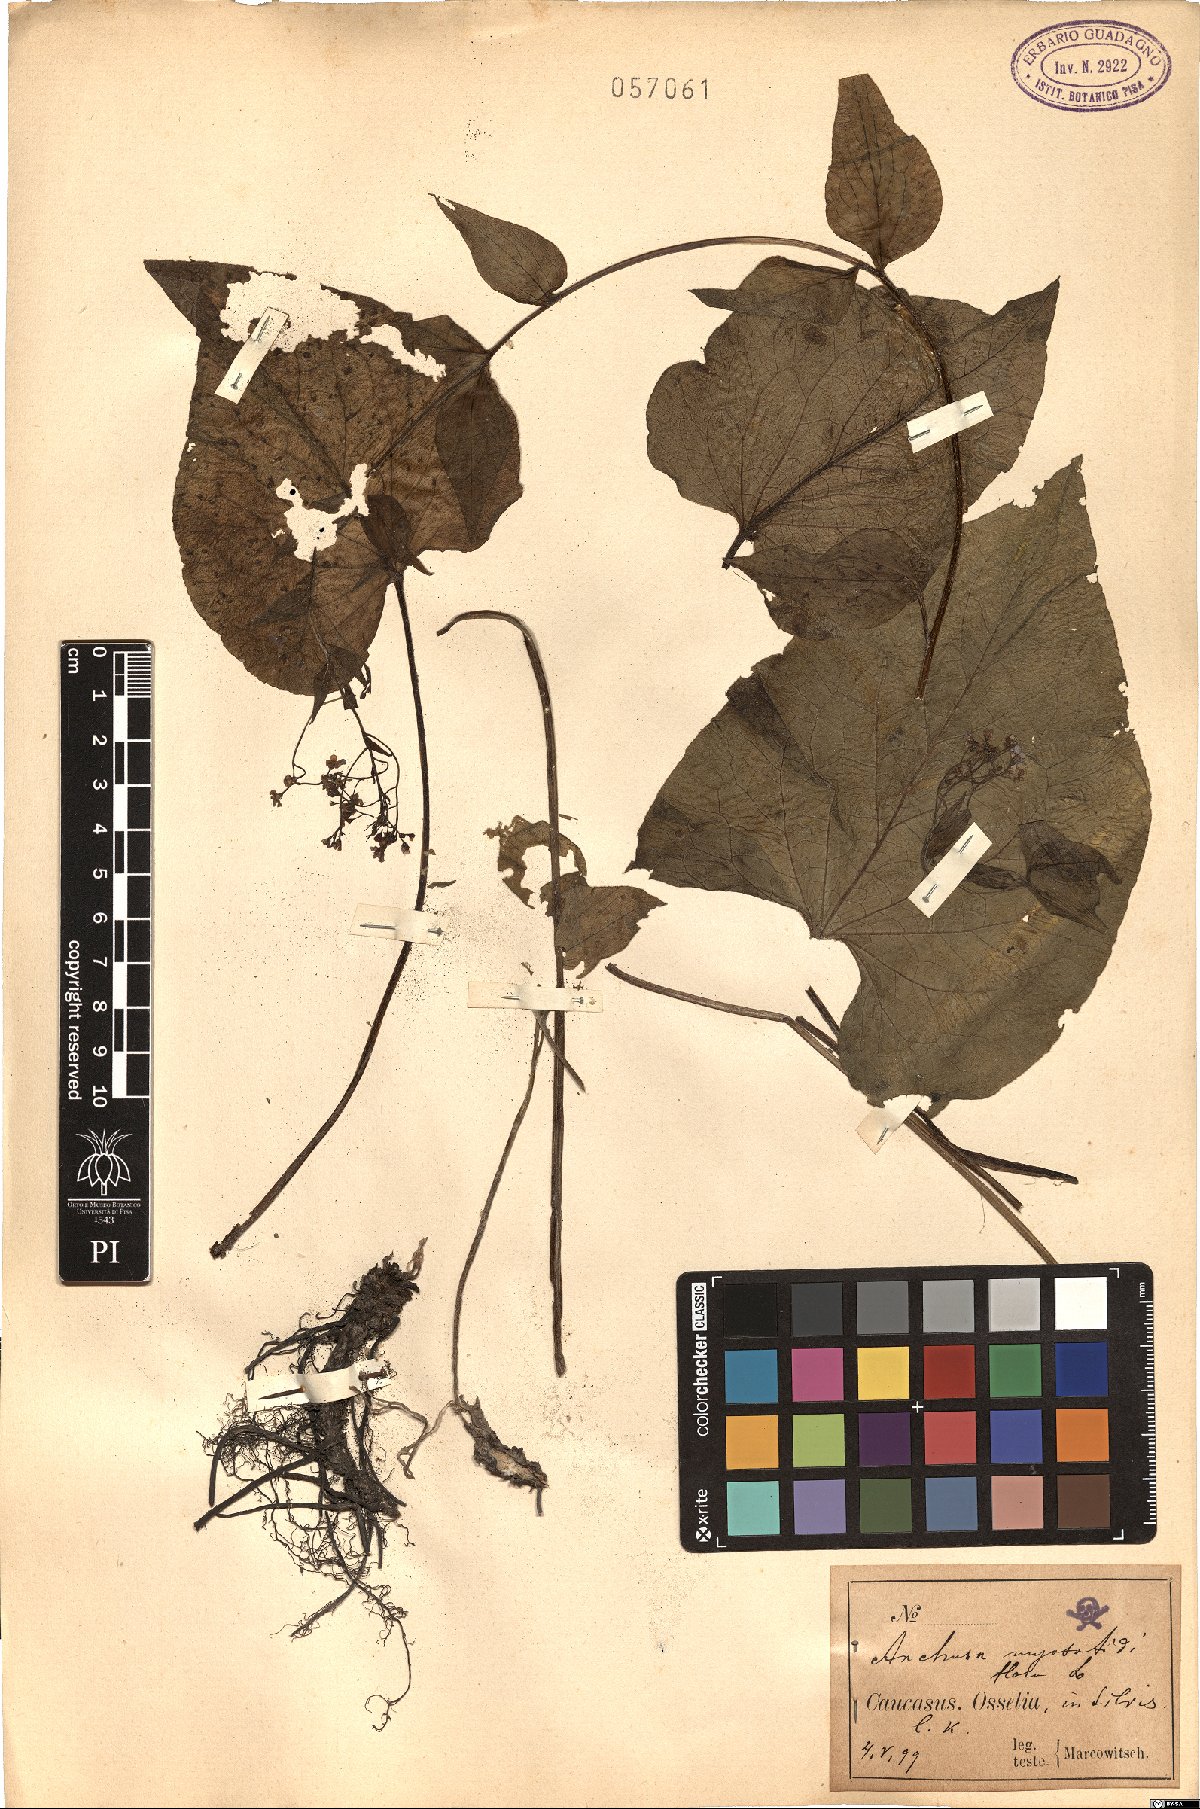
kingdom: Plantae
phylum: Tracheophyta
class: Magnoliopsida
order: Boraginales
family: Boraginaceae
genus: Brunnera
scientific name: Brunnera macrophylla
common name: Great forget-me-not
